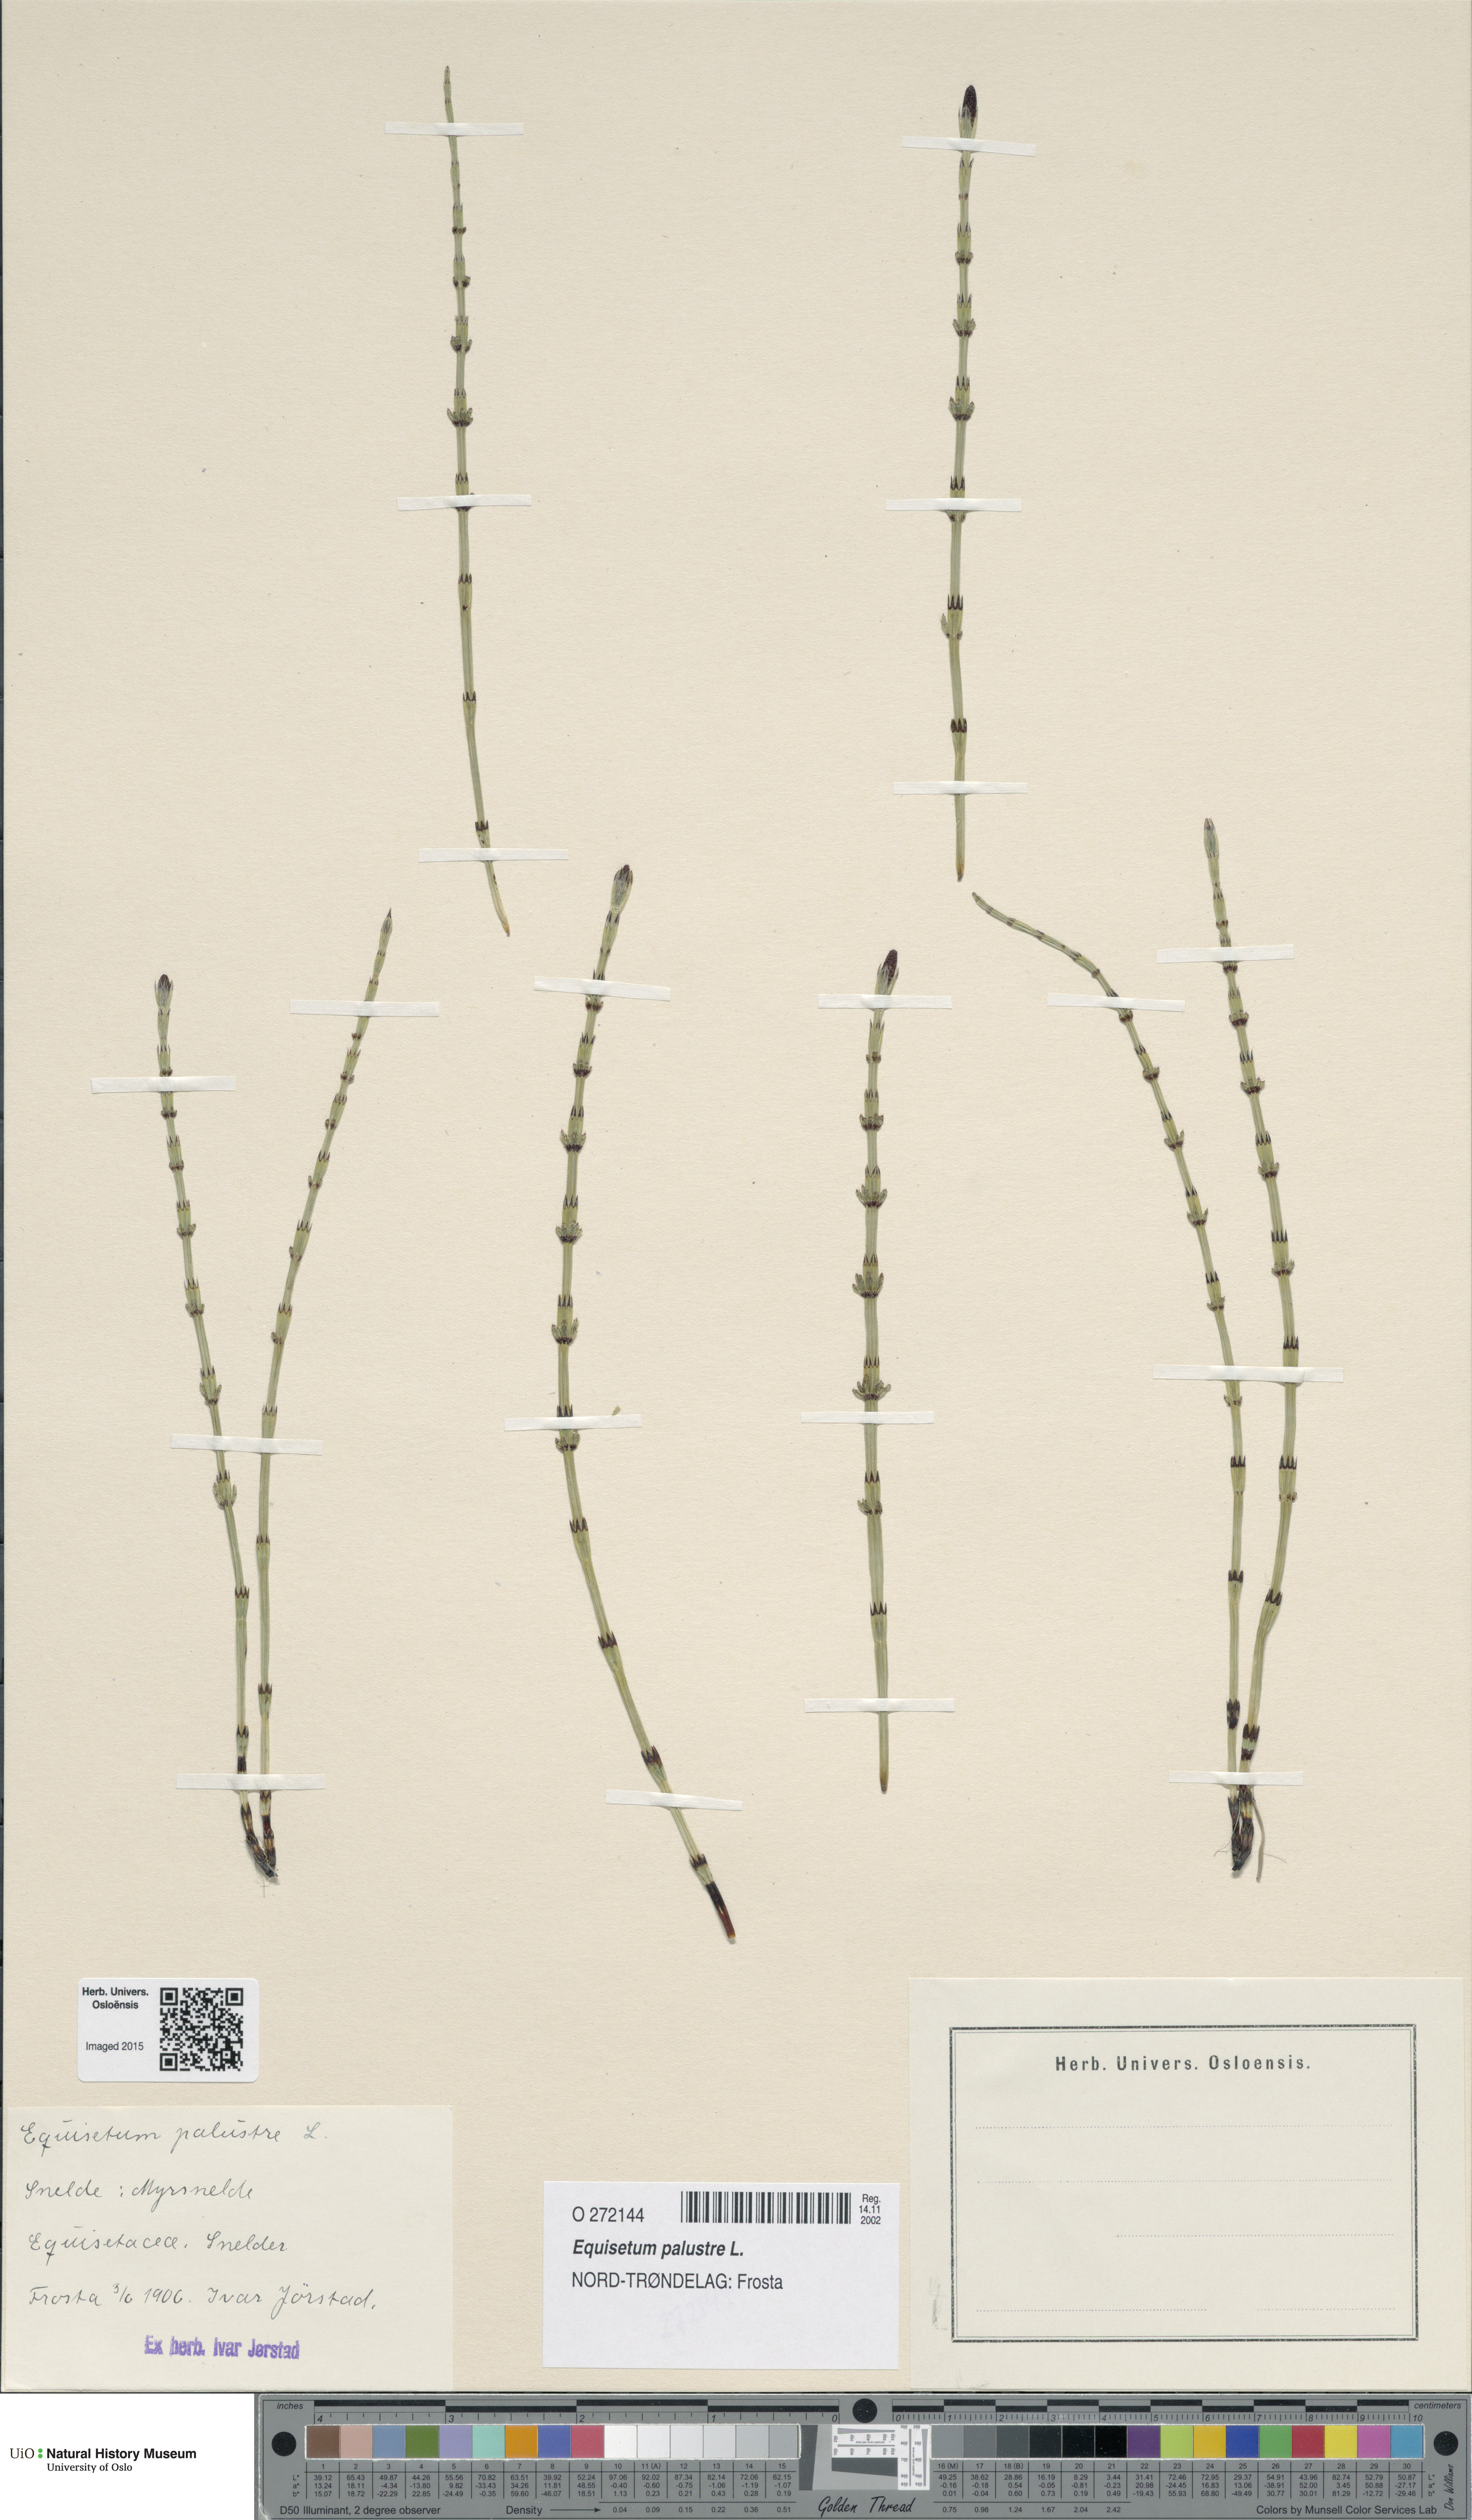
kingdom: Plantae
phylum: Tracheophyta
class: Polypodiopsida
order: Equisetales
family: Equisetaceae
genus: Equisetum
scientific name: Equisetum palustre
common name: Marsh horsetail
